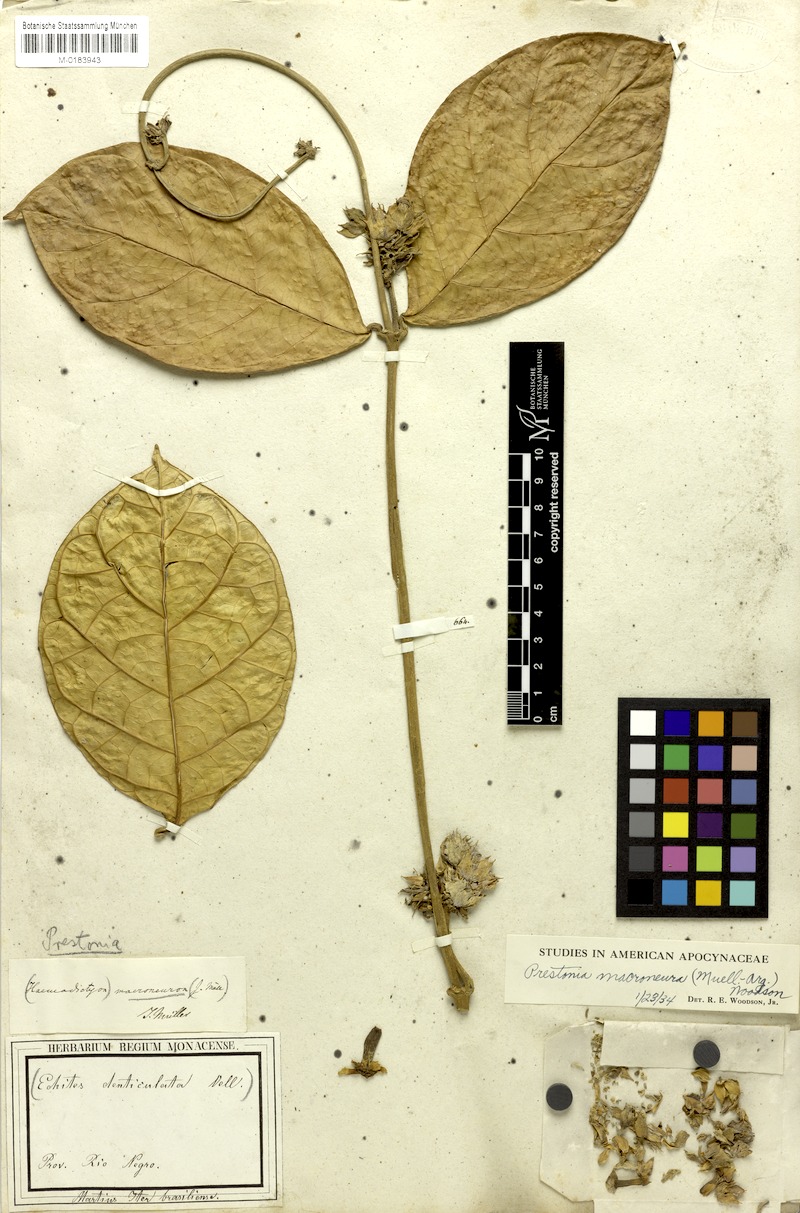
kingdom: Plantae
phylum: Tracheophyta
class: Magnoliopsida
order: Gentianales
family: Apocynaceae
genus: Prestonia
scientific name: Prestonia denticulata
